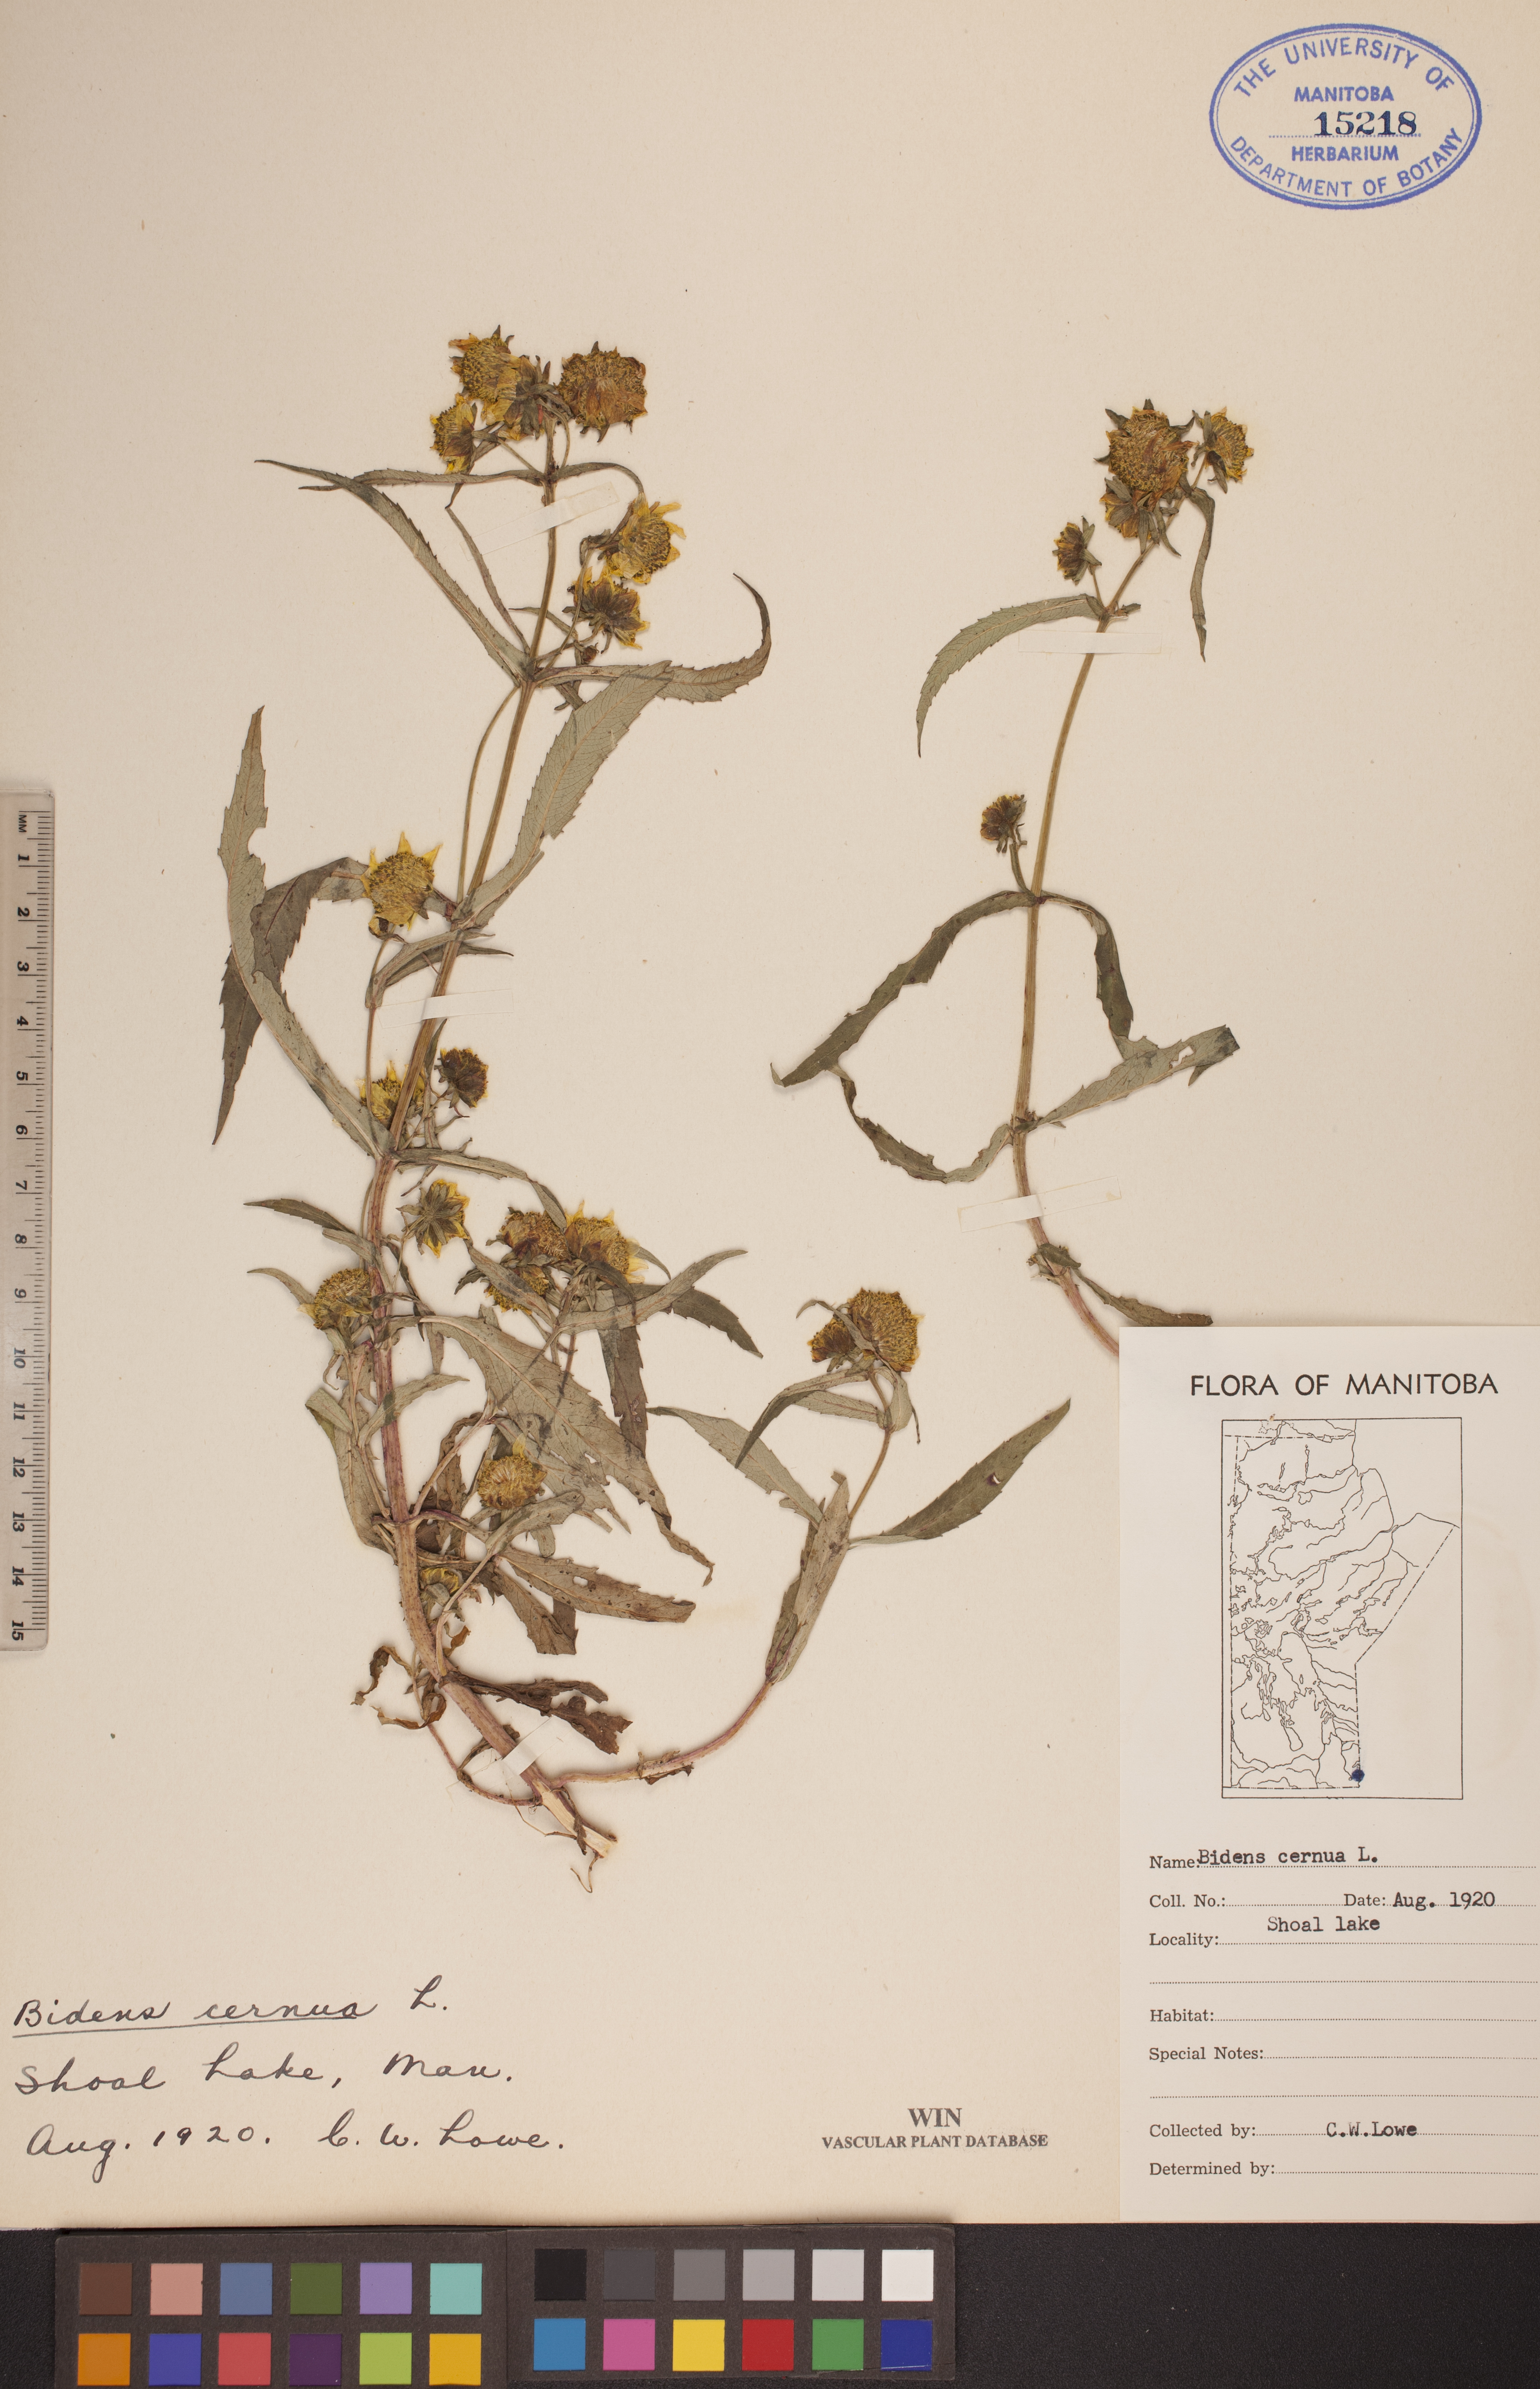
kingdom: Plantae
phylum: Tracheophyta
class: Magnoliopsida
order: Asterales
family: Asteraceae
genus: Bidens
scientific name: Bidens cernua
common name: Nodding bur-marigold
